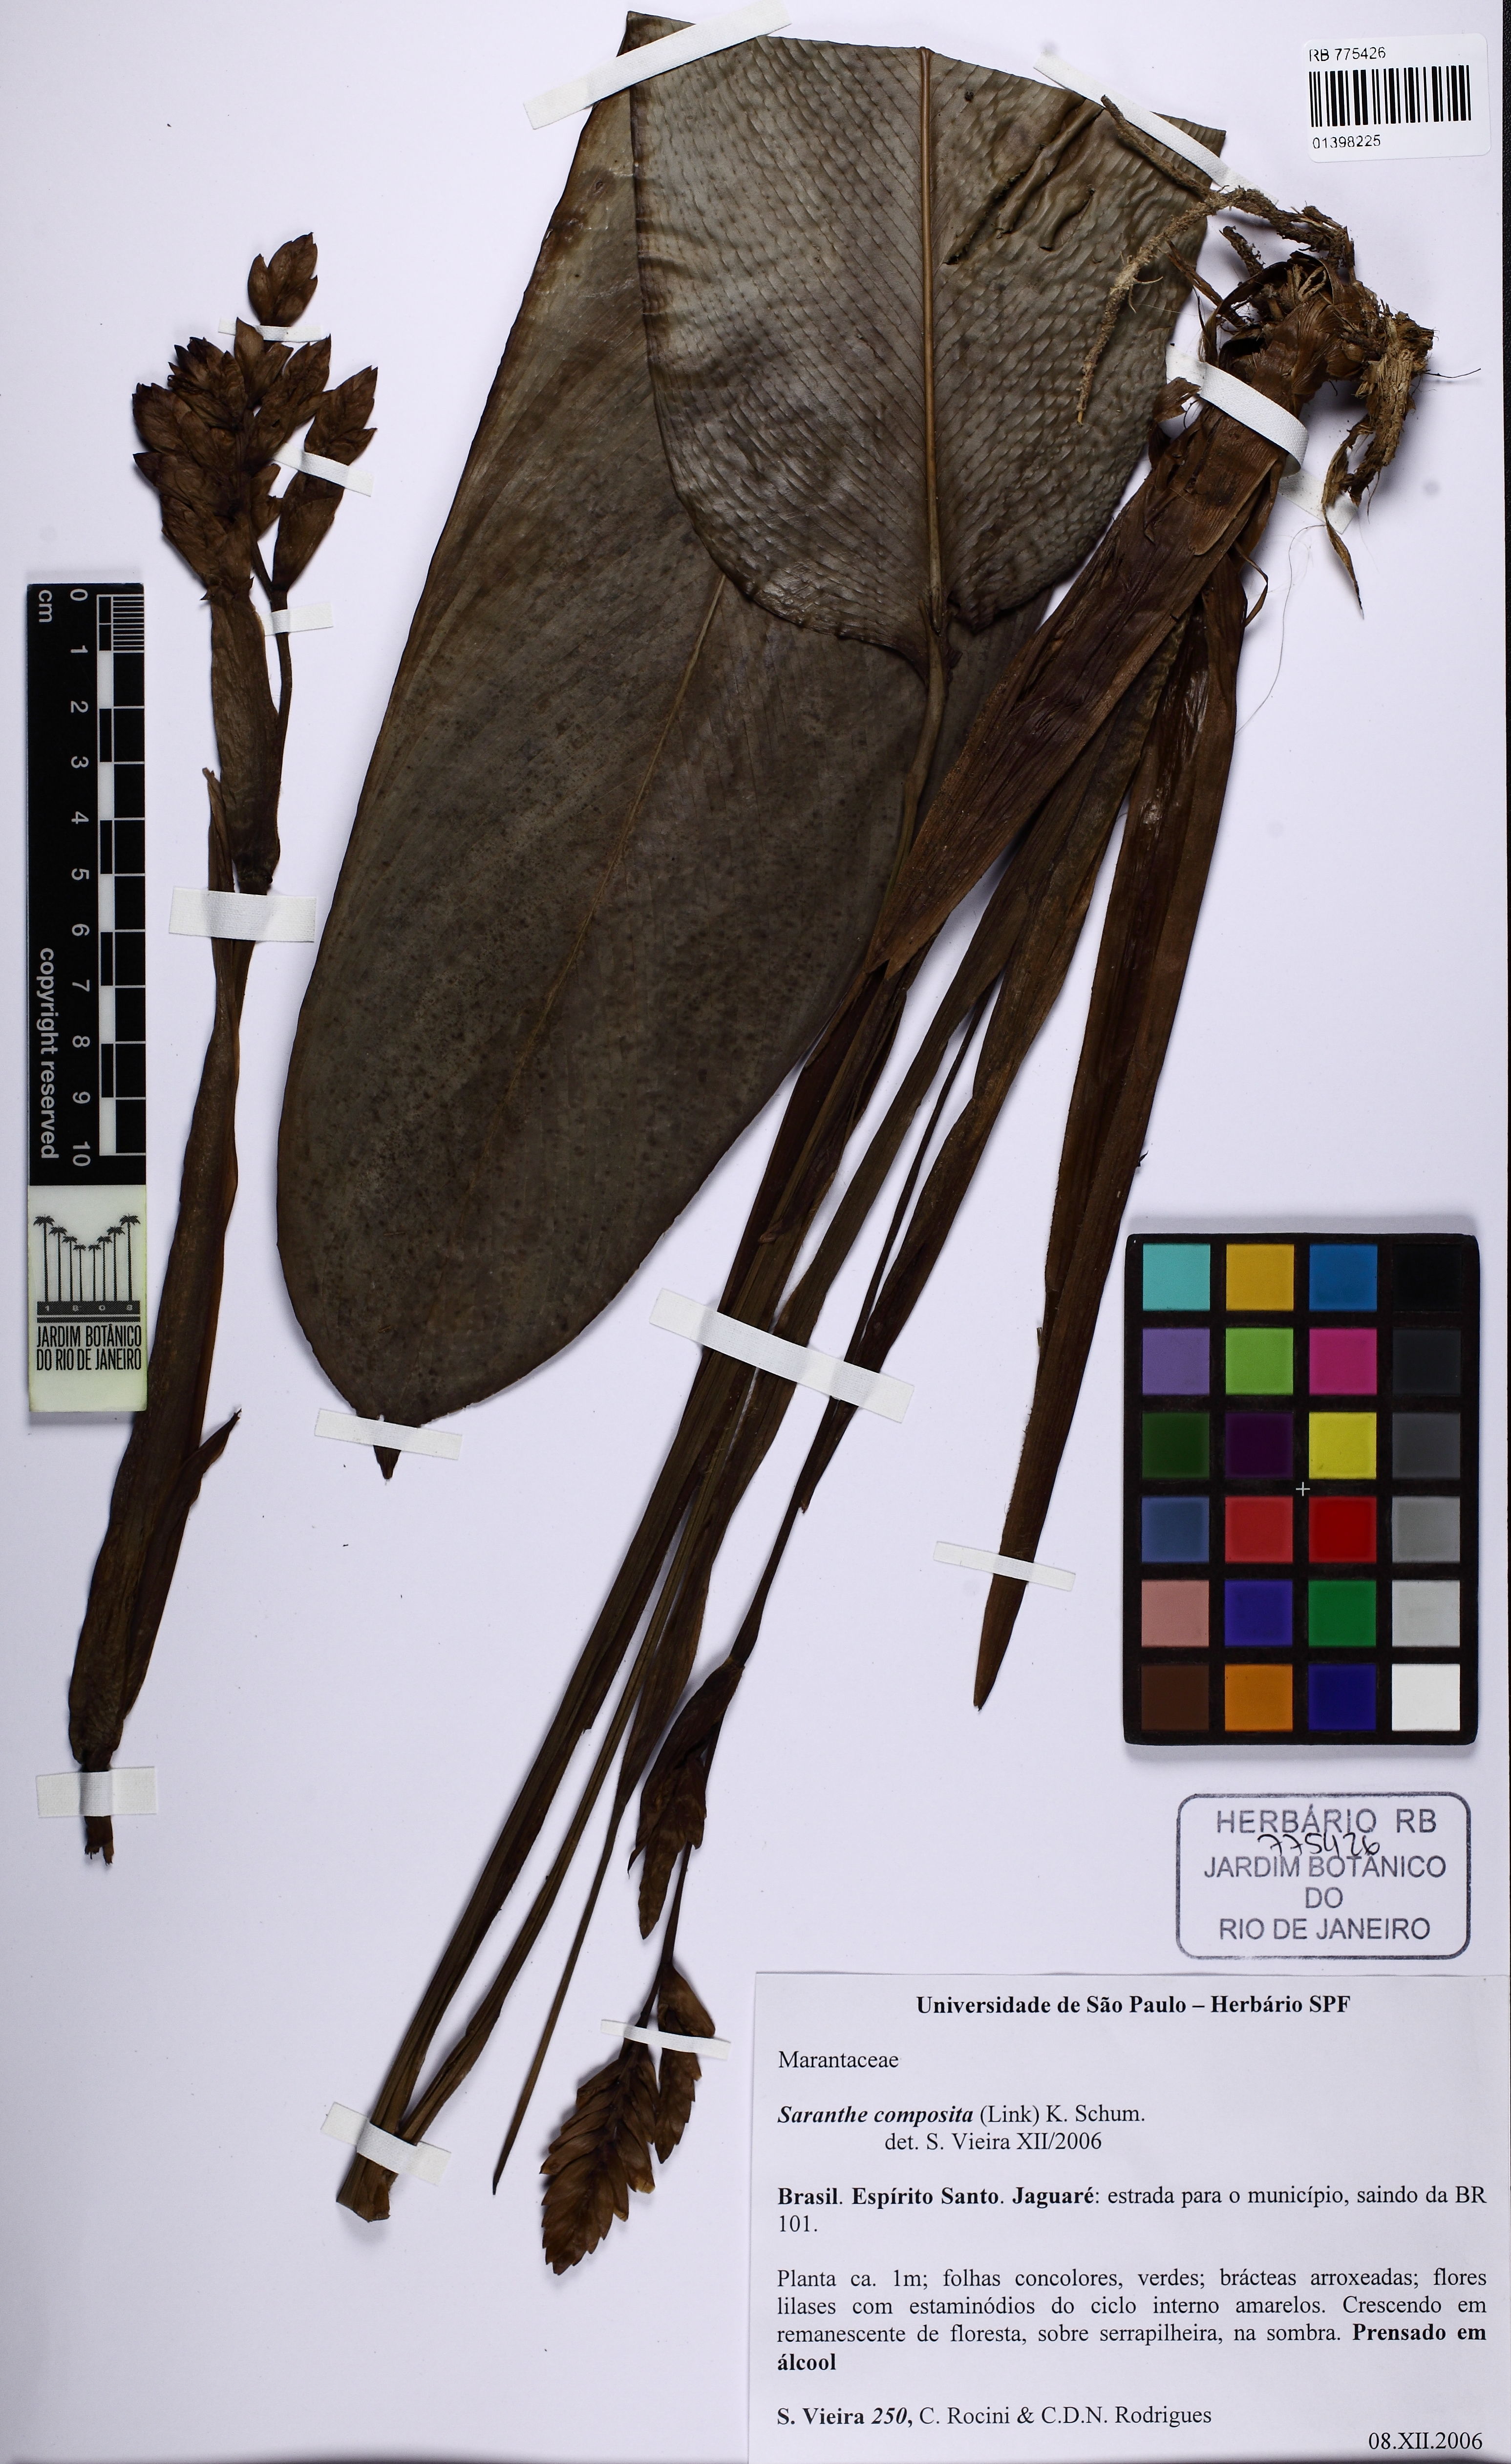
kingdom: Plantae
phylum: Tracheophyta
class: Liliopsida
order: Zingiberales
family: Marantaceae
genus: Saranthe
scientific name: Saranthe composita
